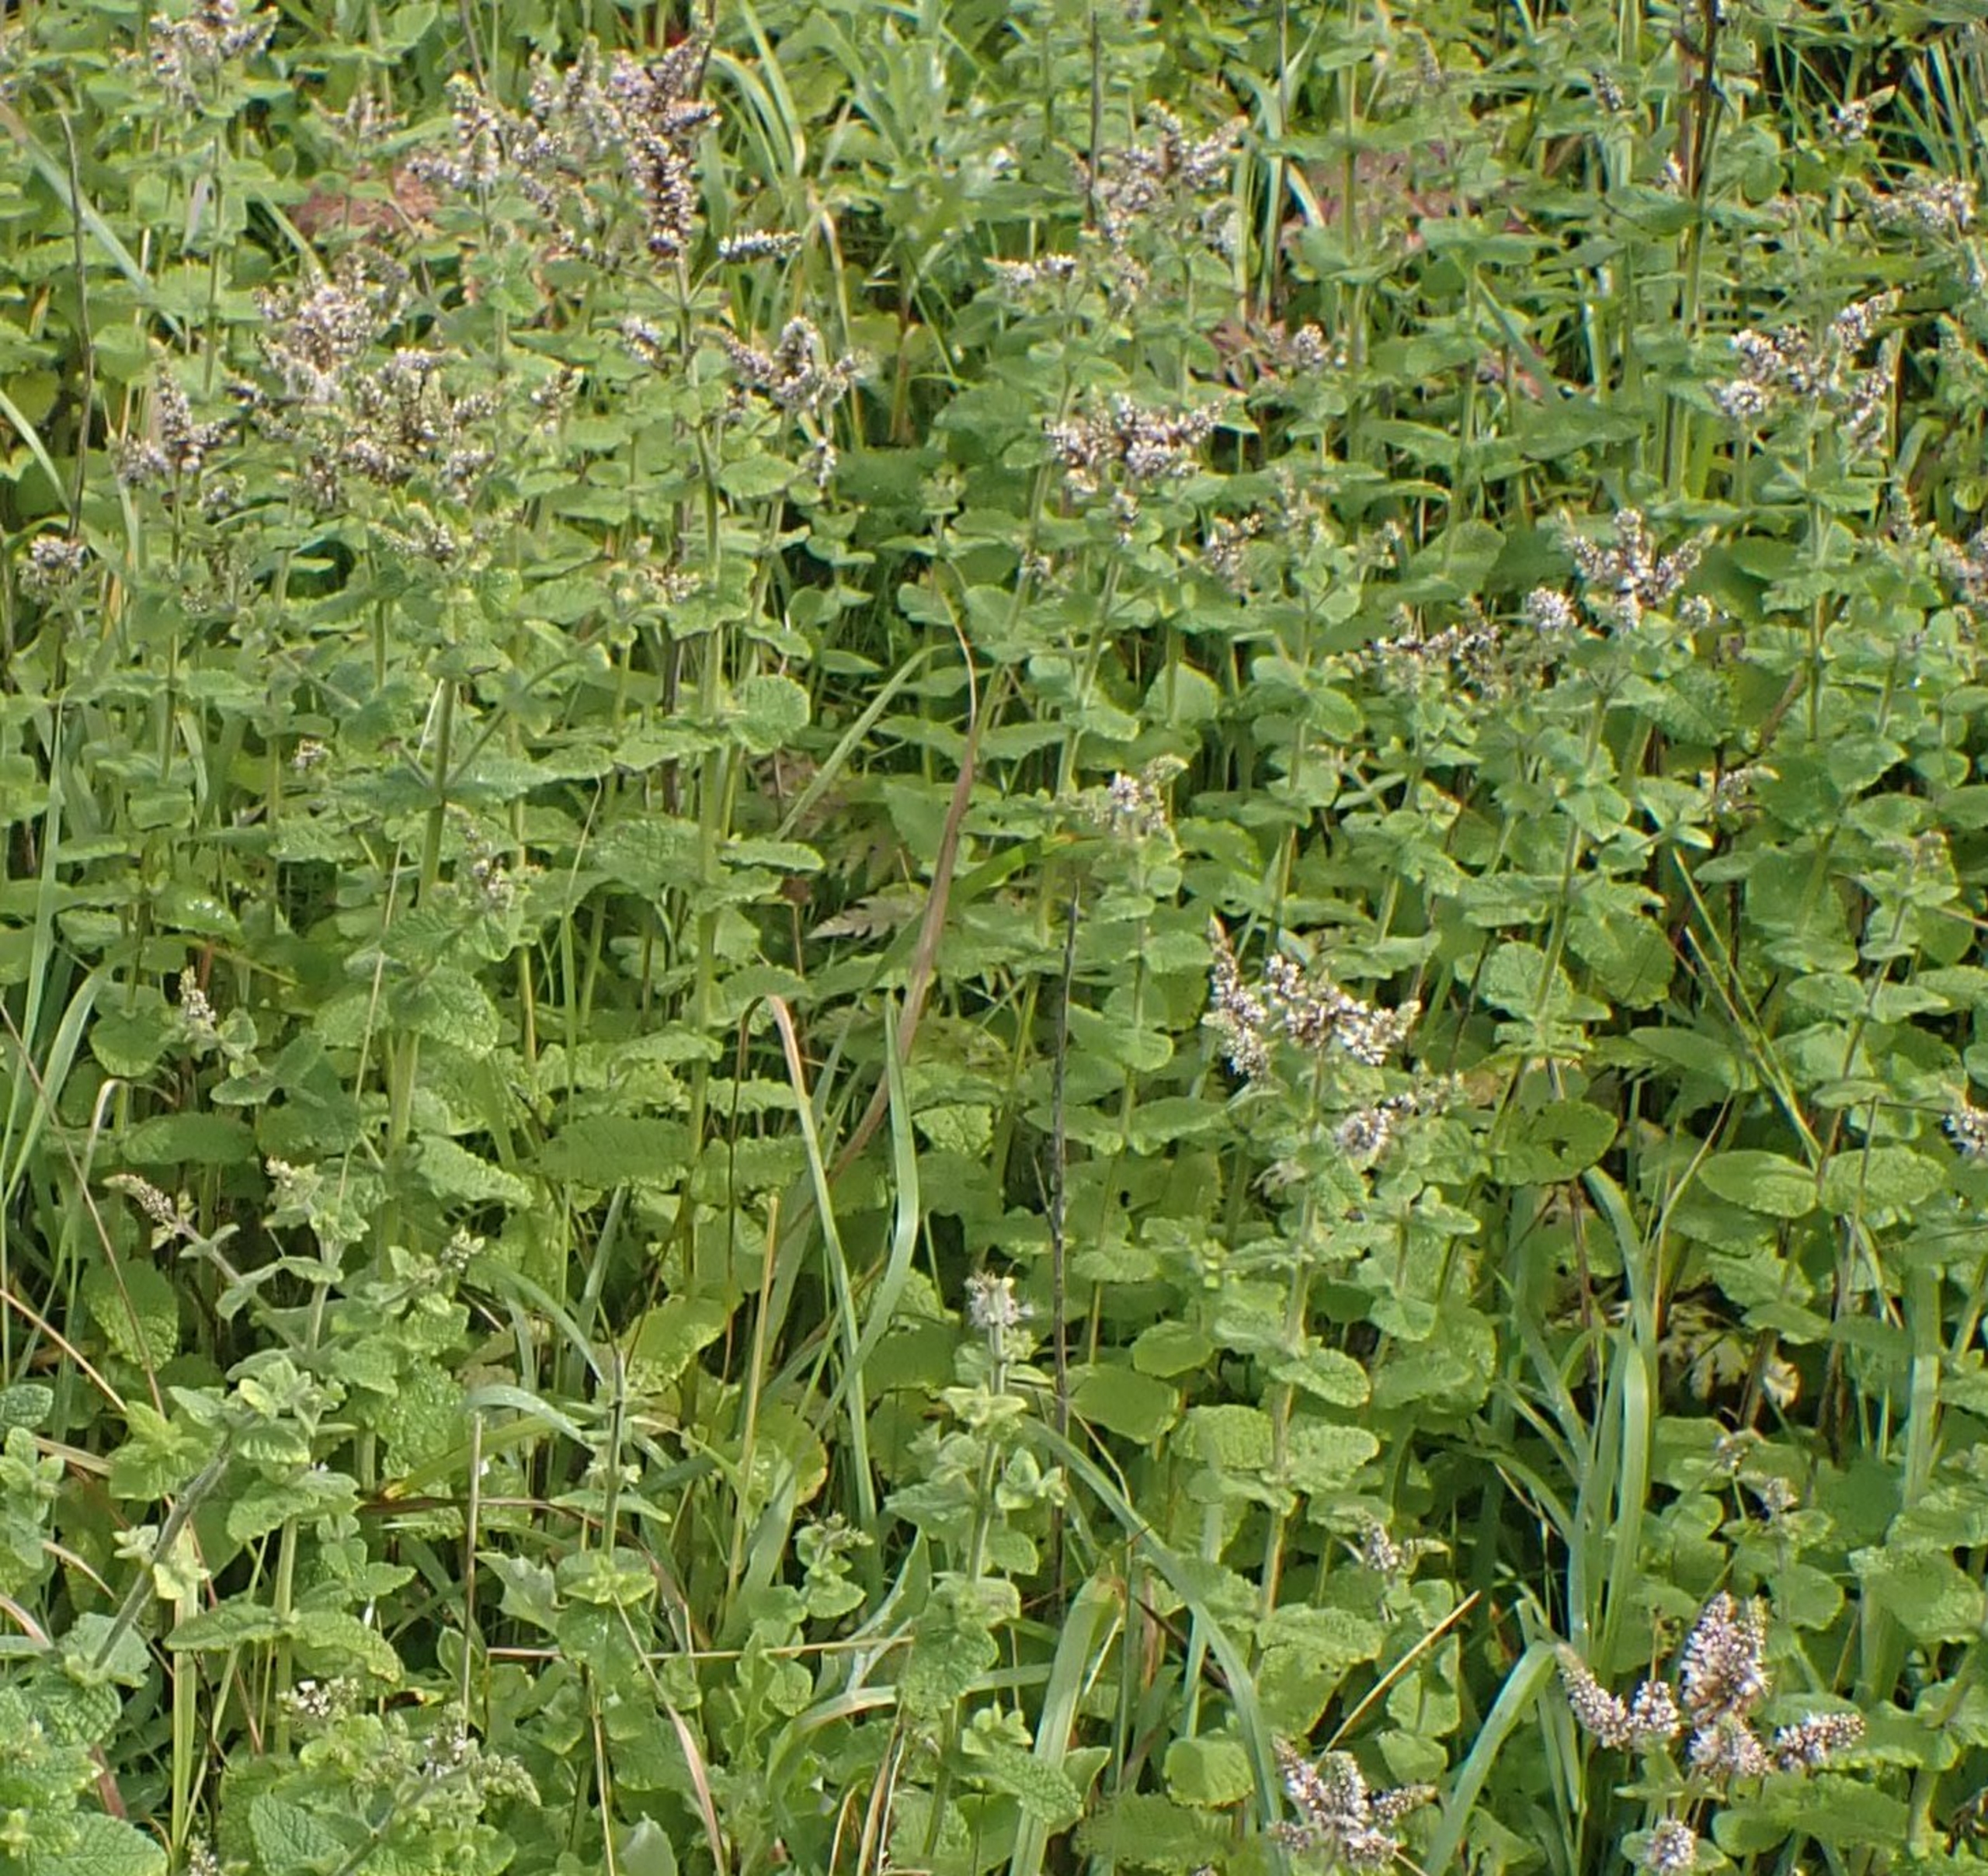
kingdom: Plantae
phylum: Tracheophyta
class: Magnoliopsida
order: Lamiales
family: Lamiaceae
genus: Mentha
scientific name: Mentha suaveolens
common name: Rundbladet mynte
